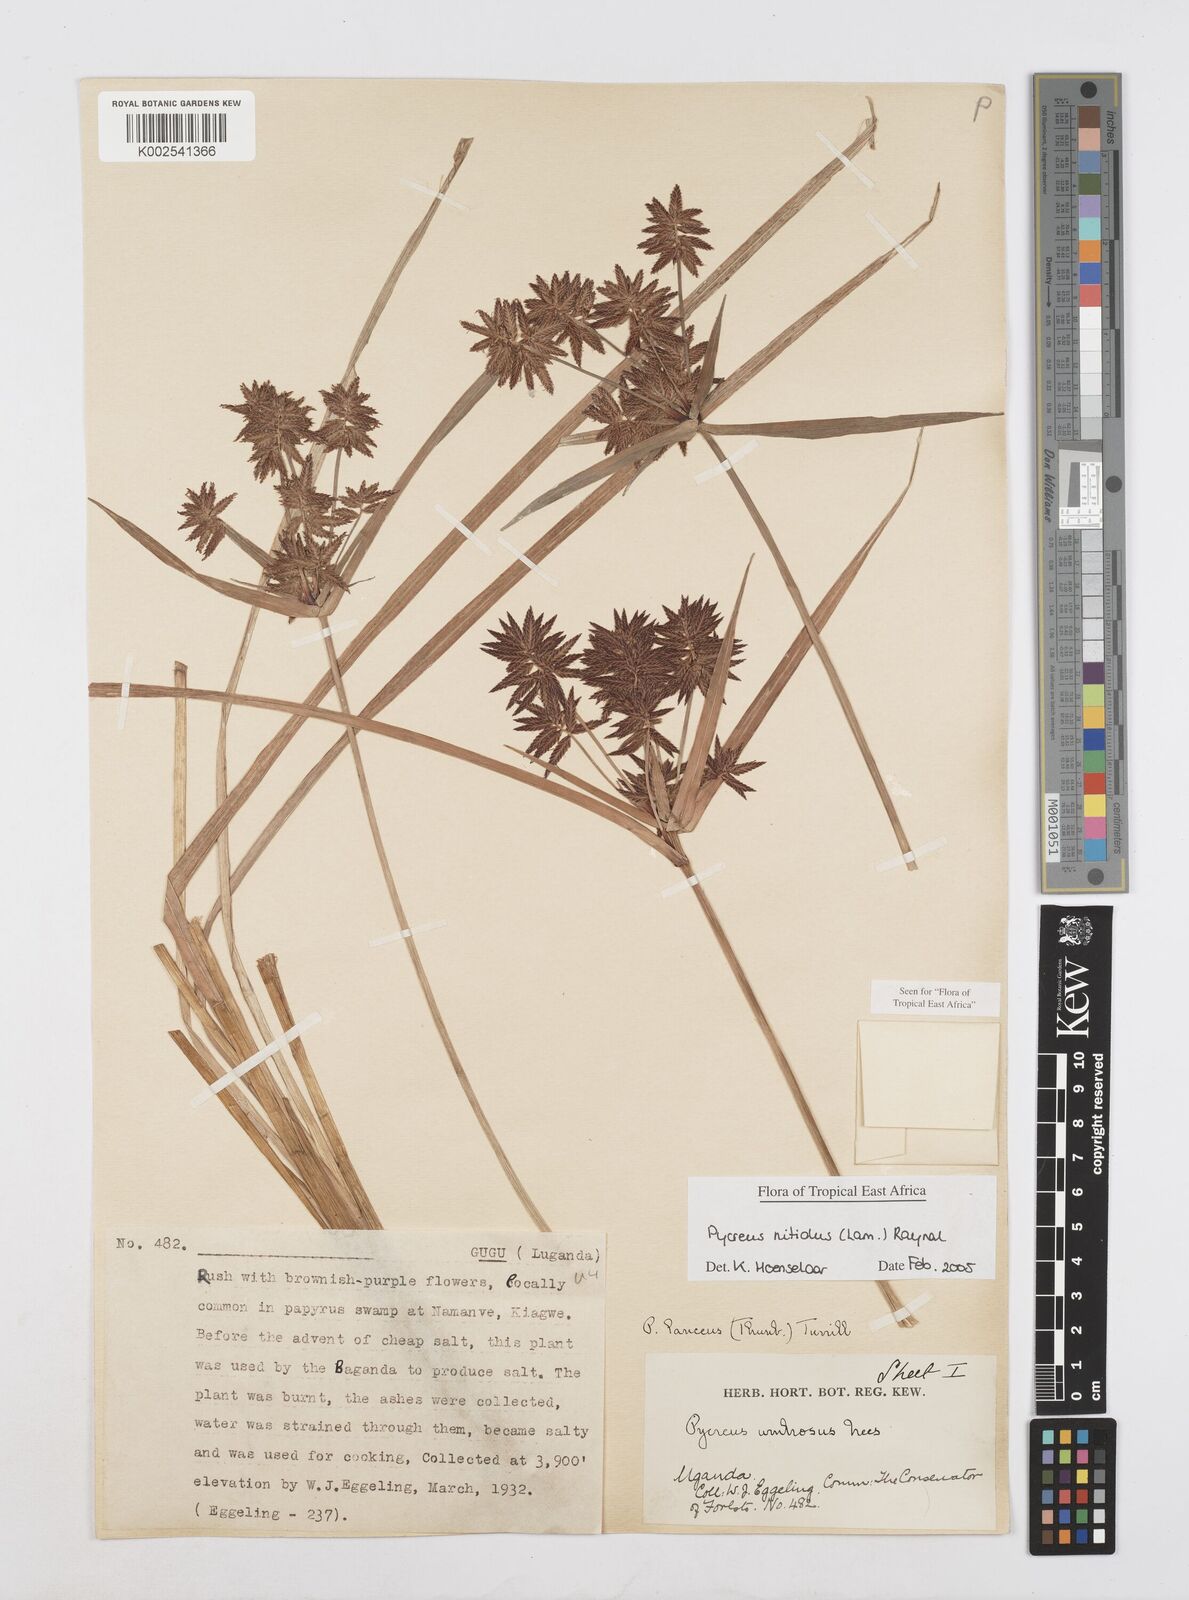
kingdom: Plantae
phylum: Tracheophyta
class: Liliopsida
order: Poales
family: Cyperaceae
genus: Cyperus
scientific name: Cyperus nitidus
